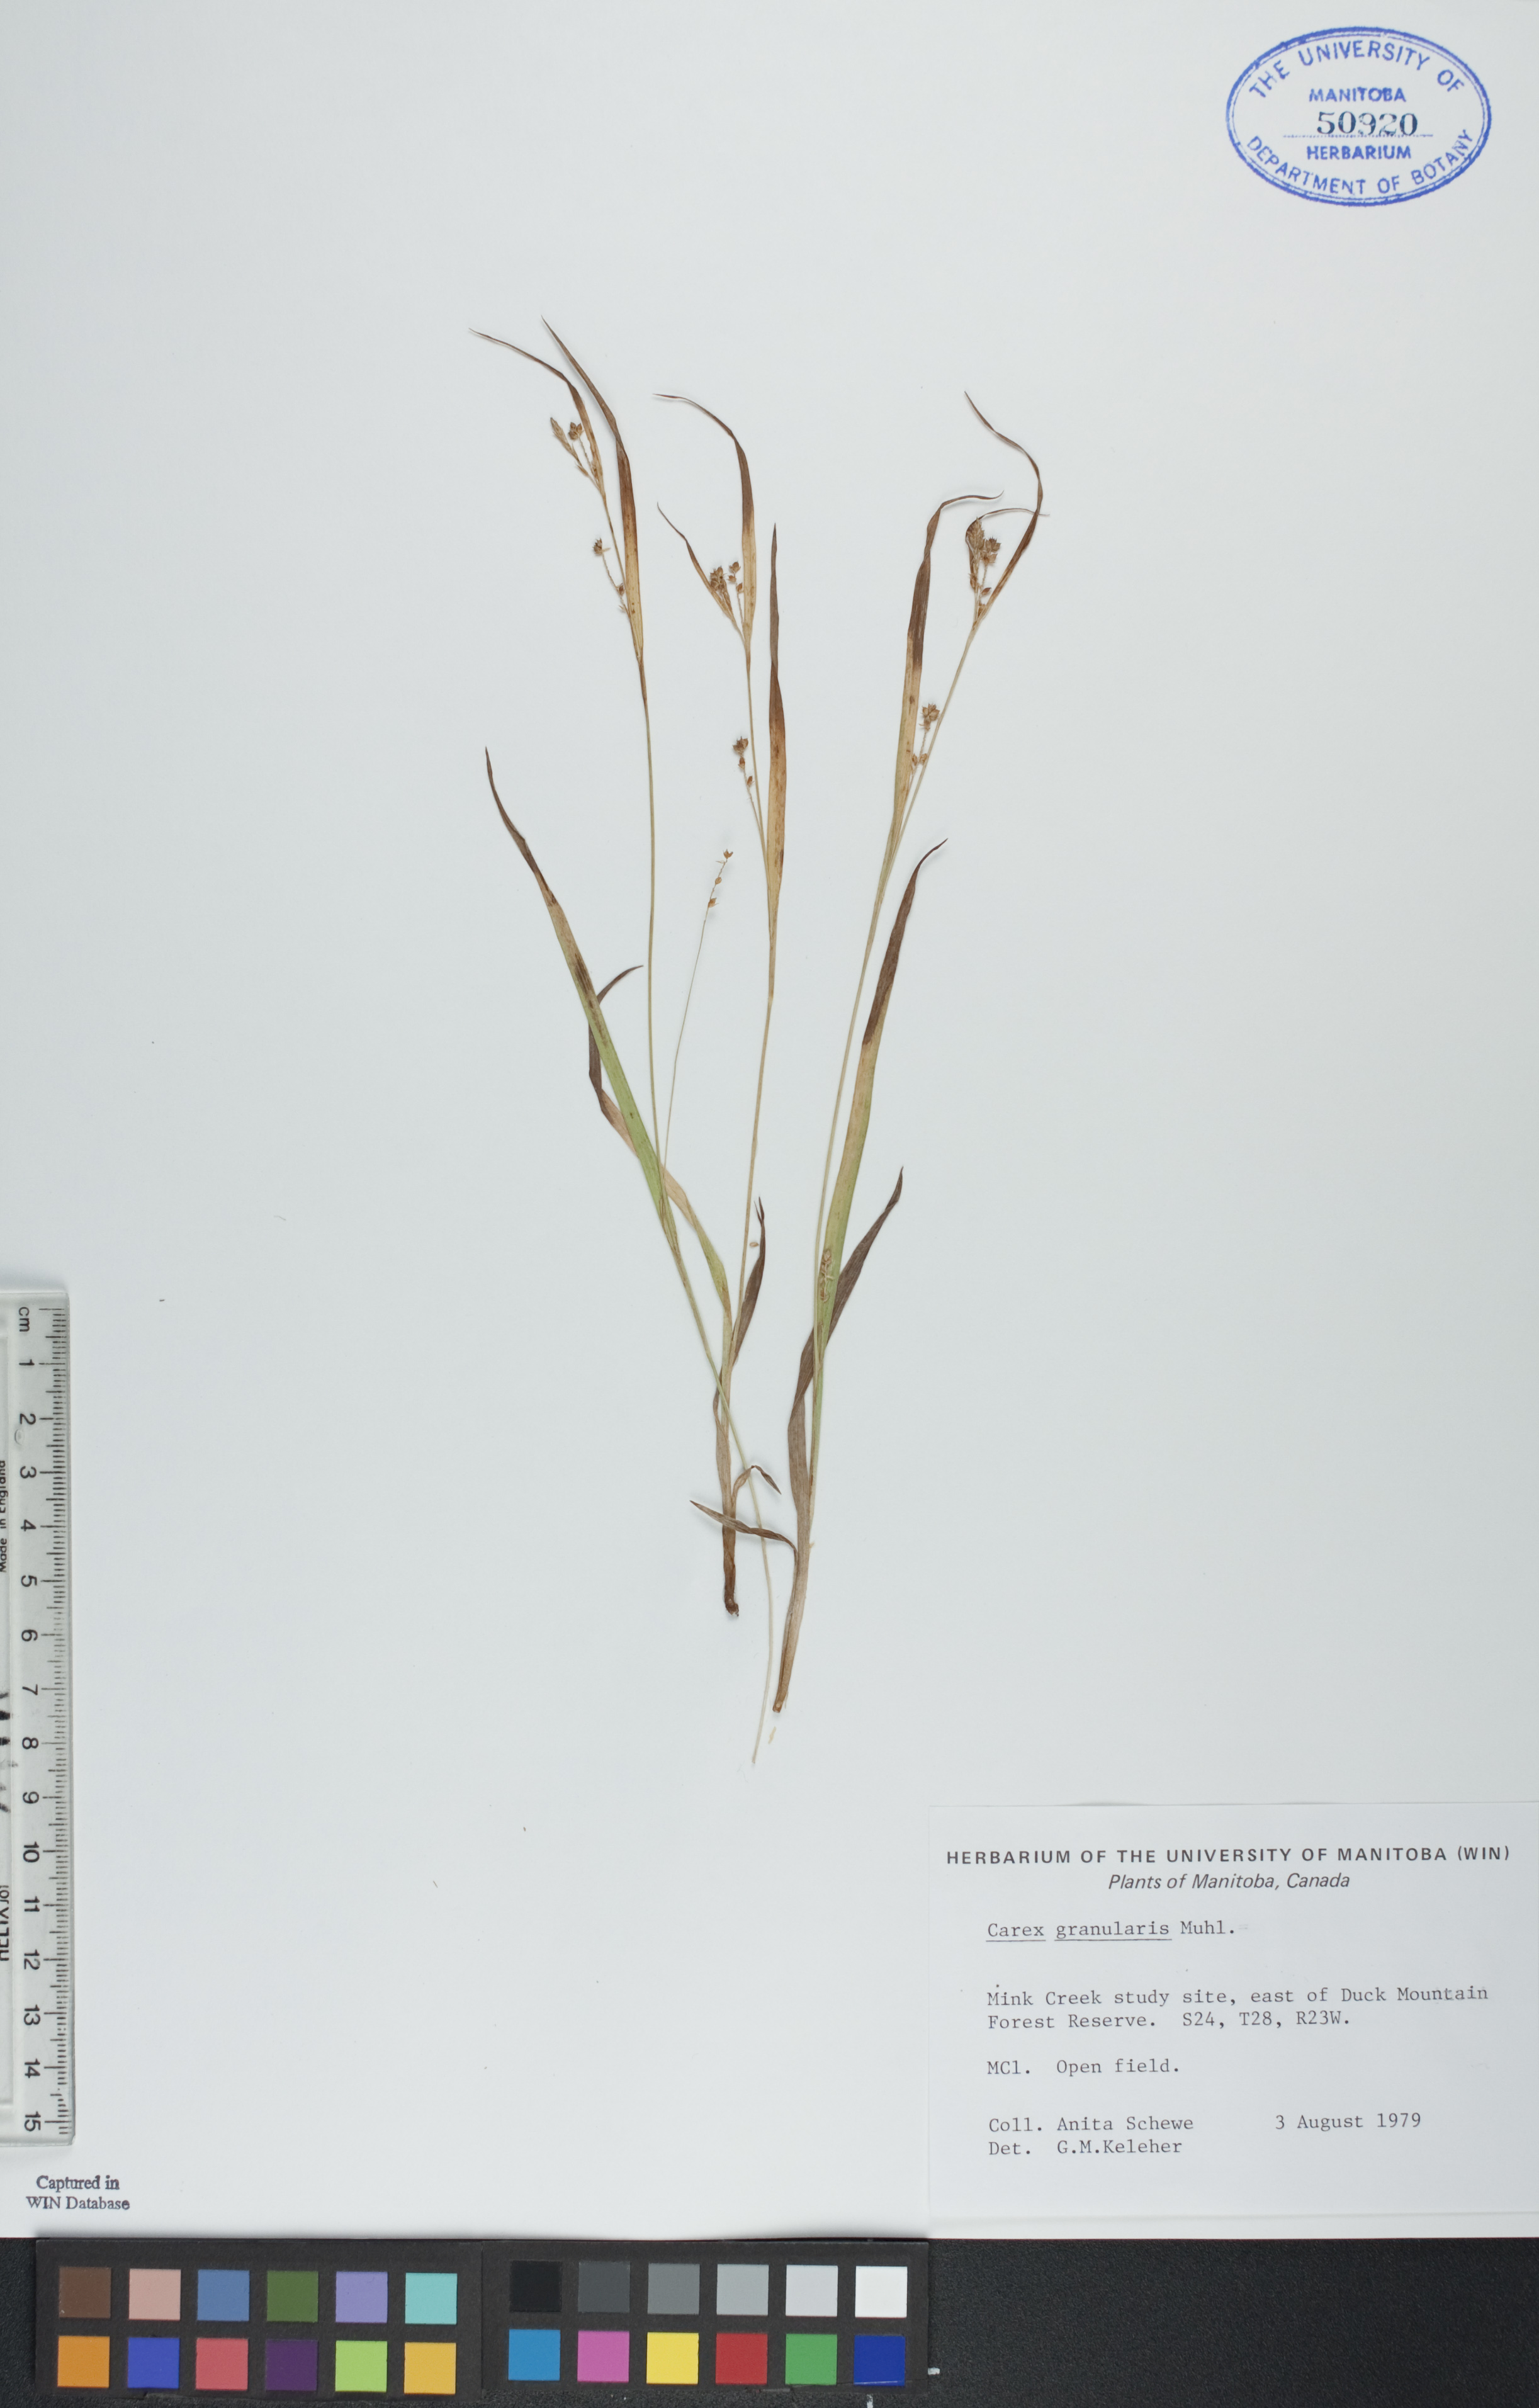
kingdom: Plantae
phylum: Tracheophyta
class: Liliopsida
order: Poales
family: Cyperaceae
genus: Carex
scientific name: Carex granularis
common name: Granular sedge
